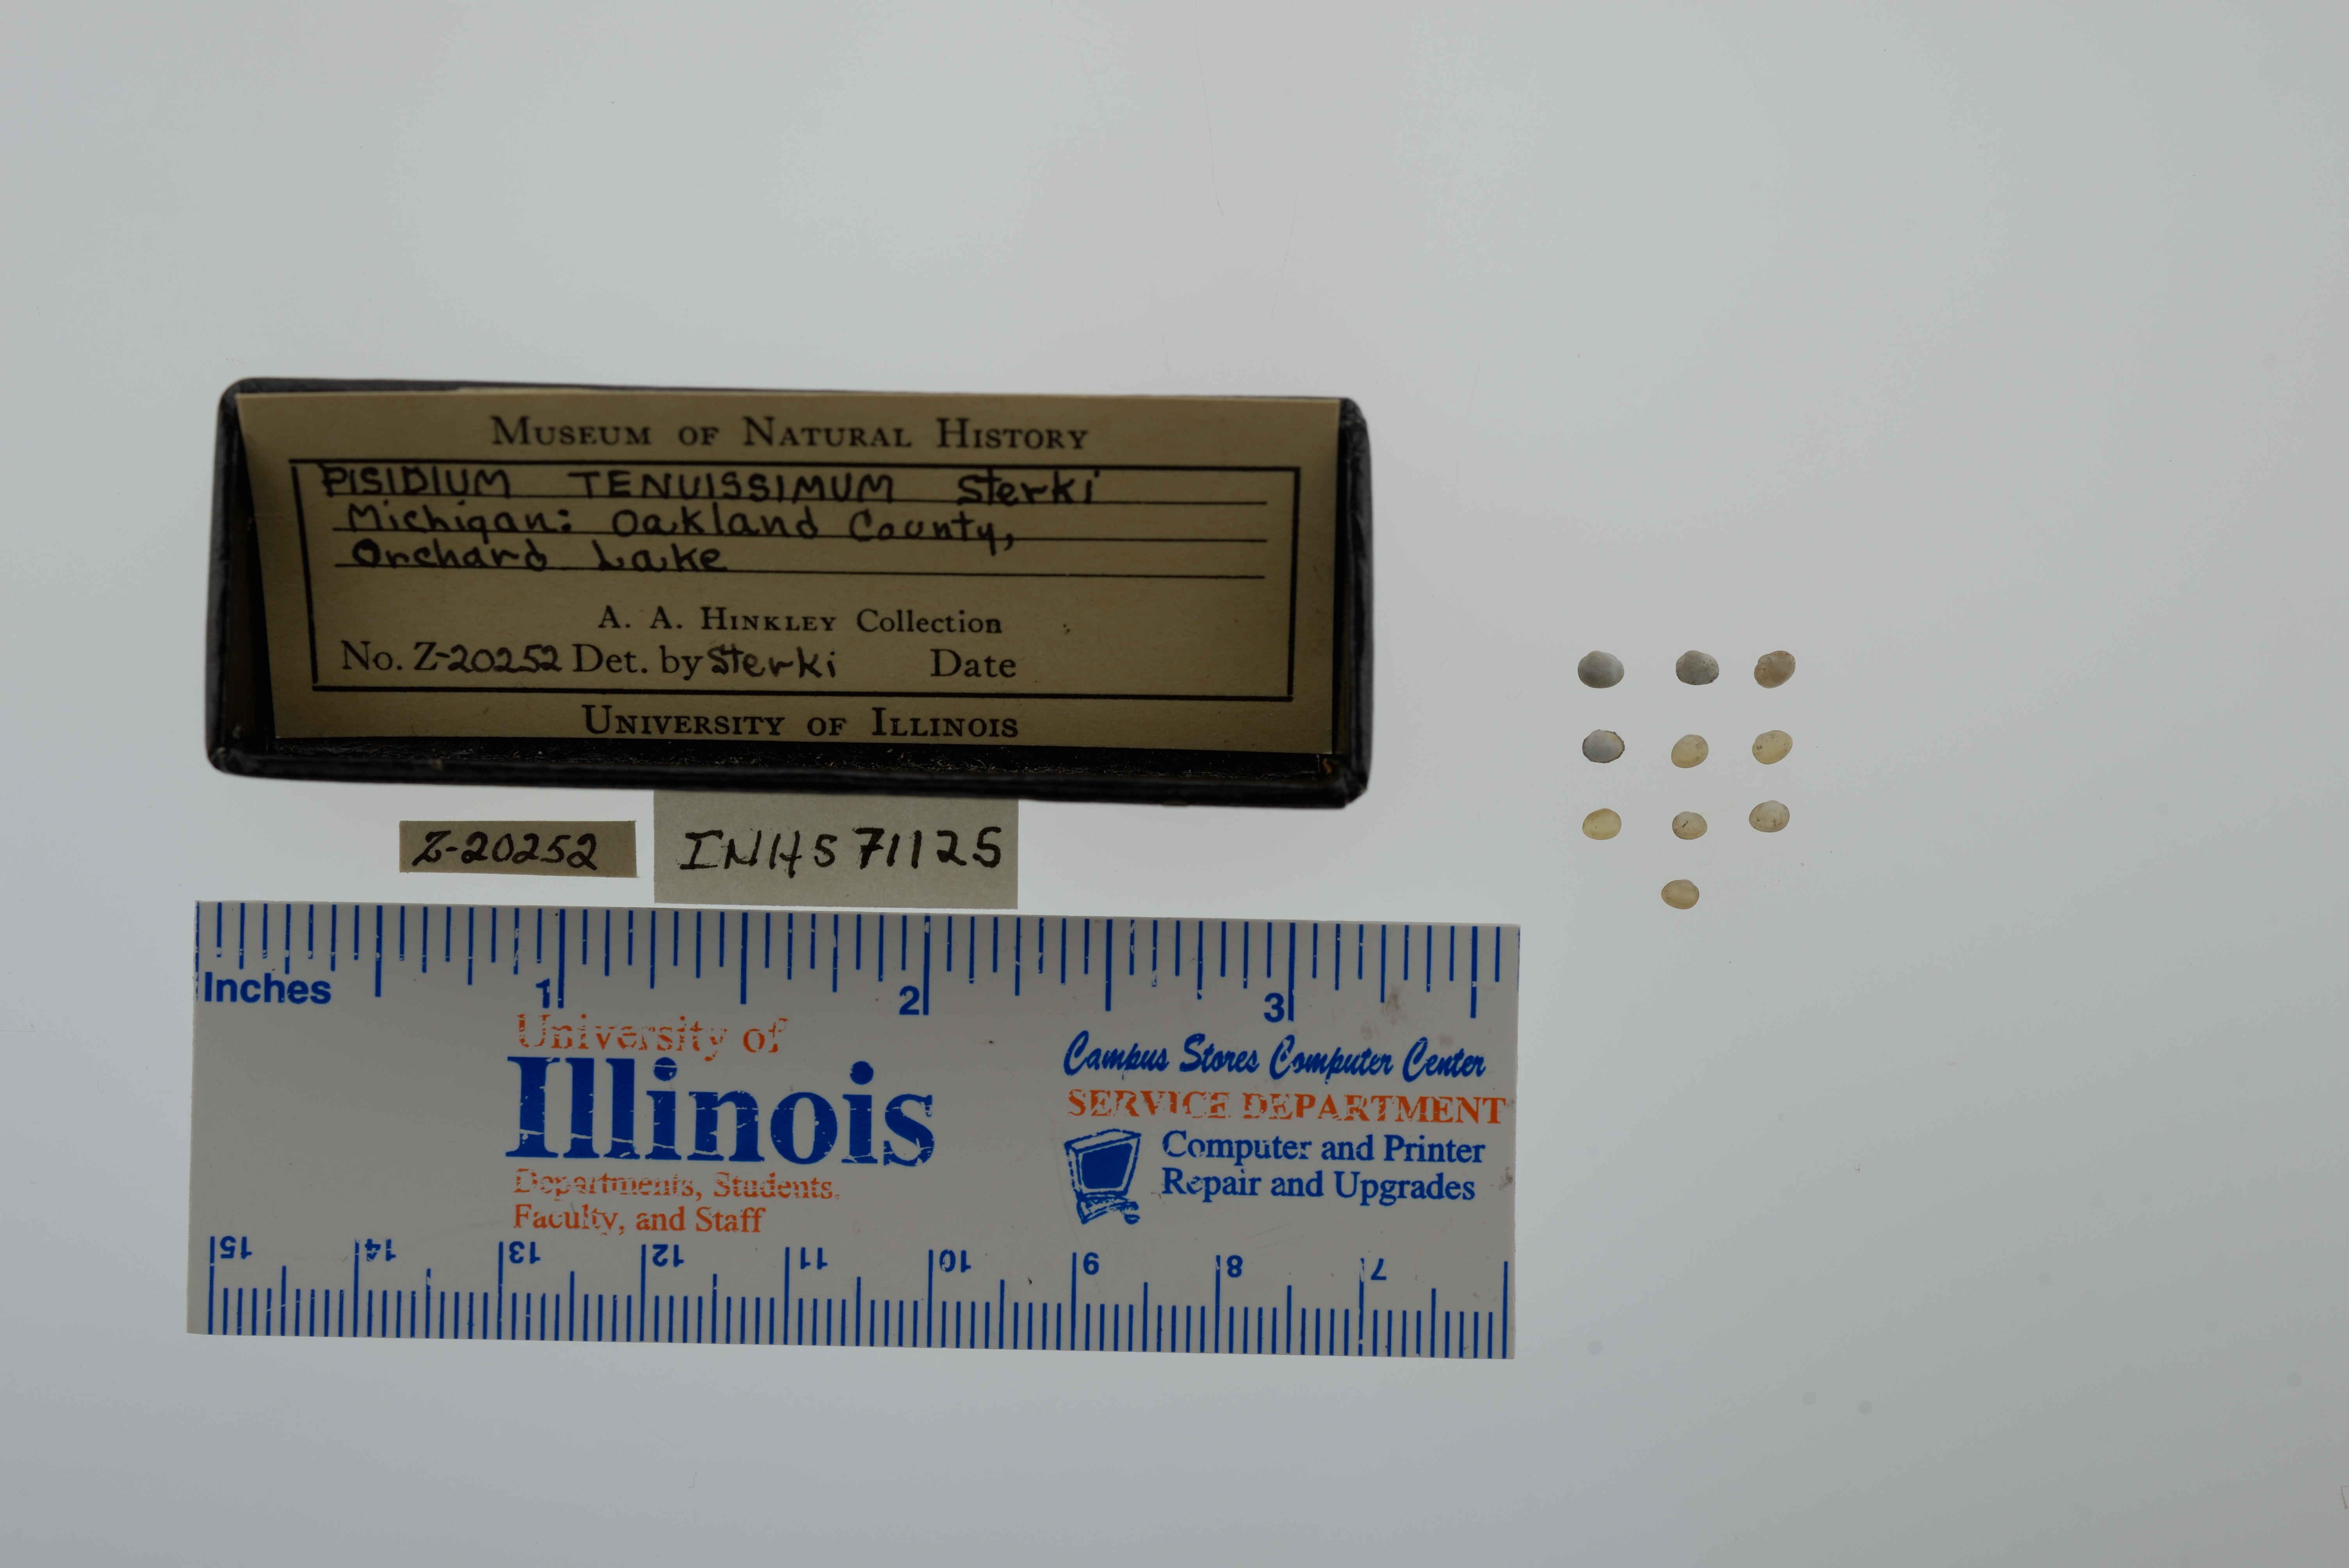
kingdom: Animalia
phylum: Mollusca
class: Bivalvia
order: Sphaeriida
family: Sphaeriidae
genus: Euglesa
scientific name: Euglesa nitida
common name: Shining peaclam
